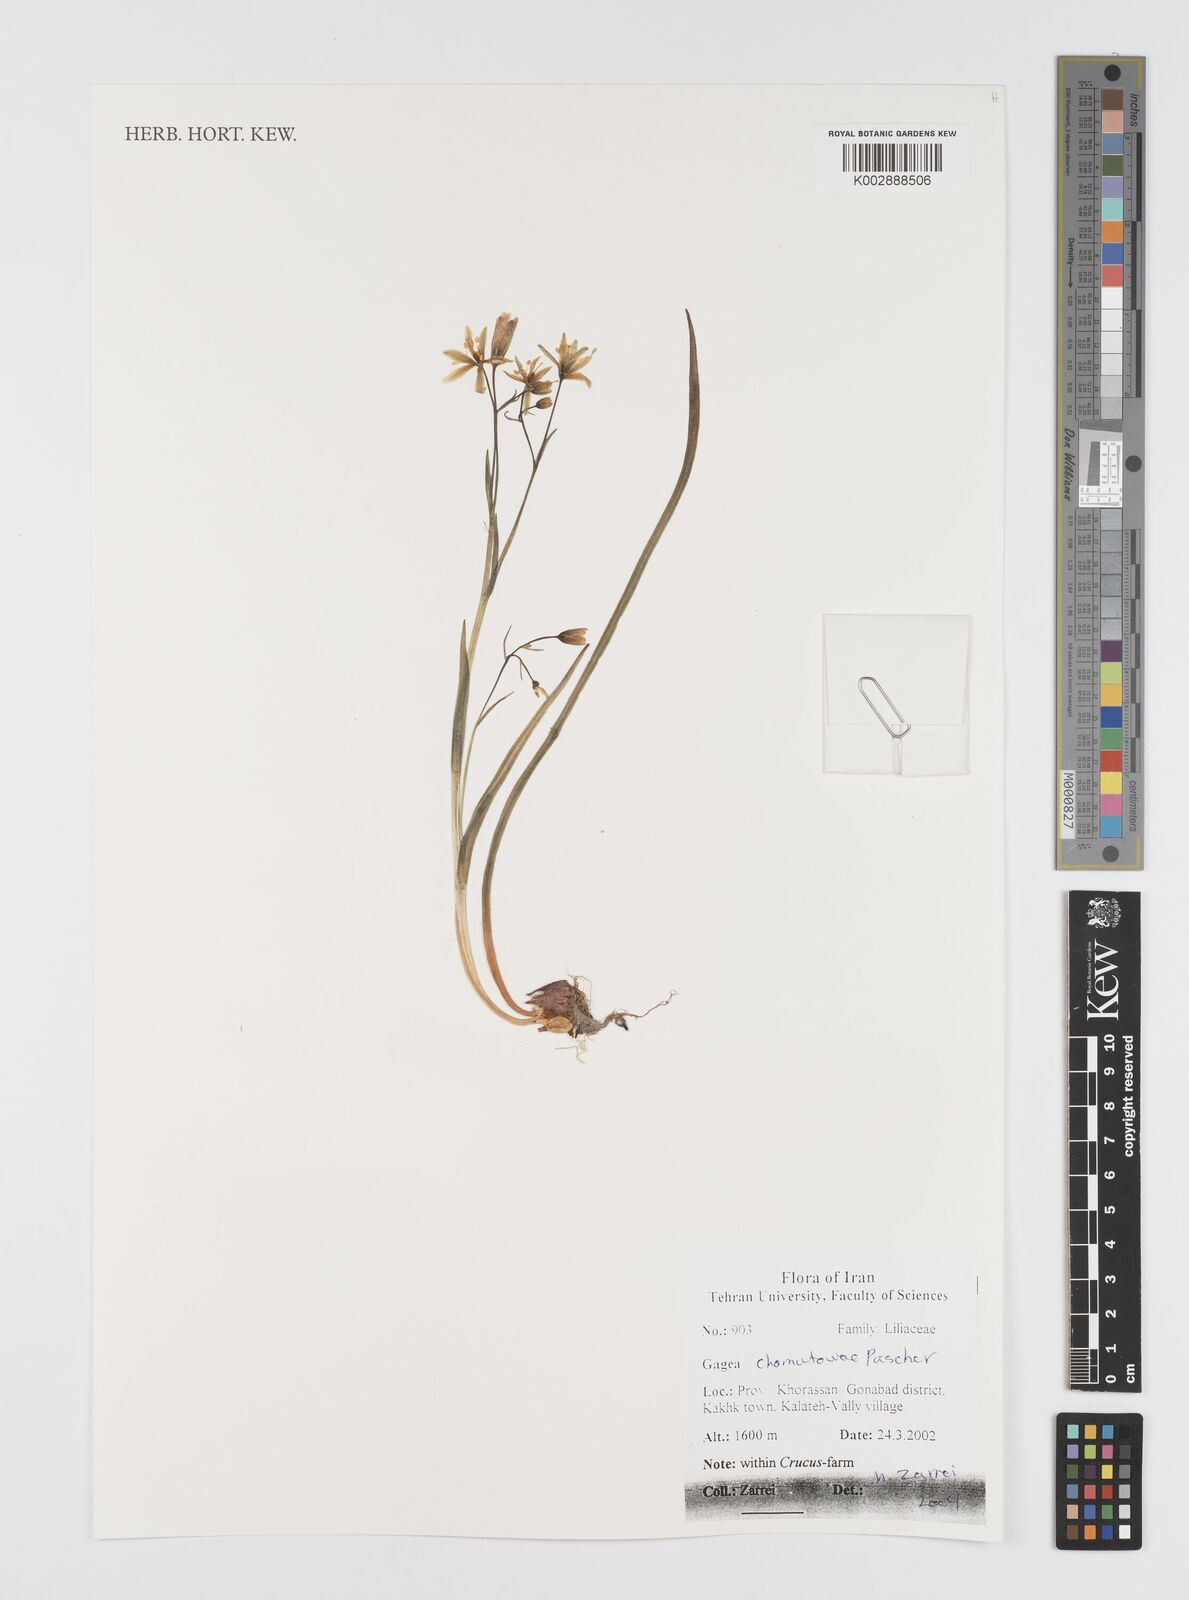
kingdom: Plantae
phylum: Tracheophyta
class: Liliopsida
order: Liliales
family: Liliaceae
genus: Gagea
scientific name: Gagea chomutovae
